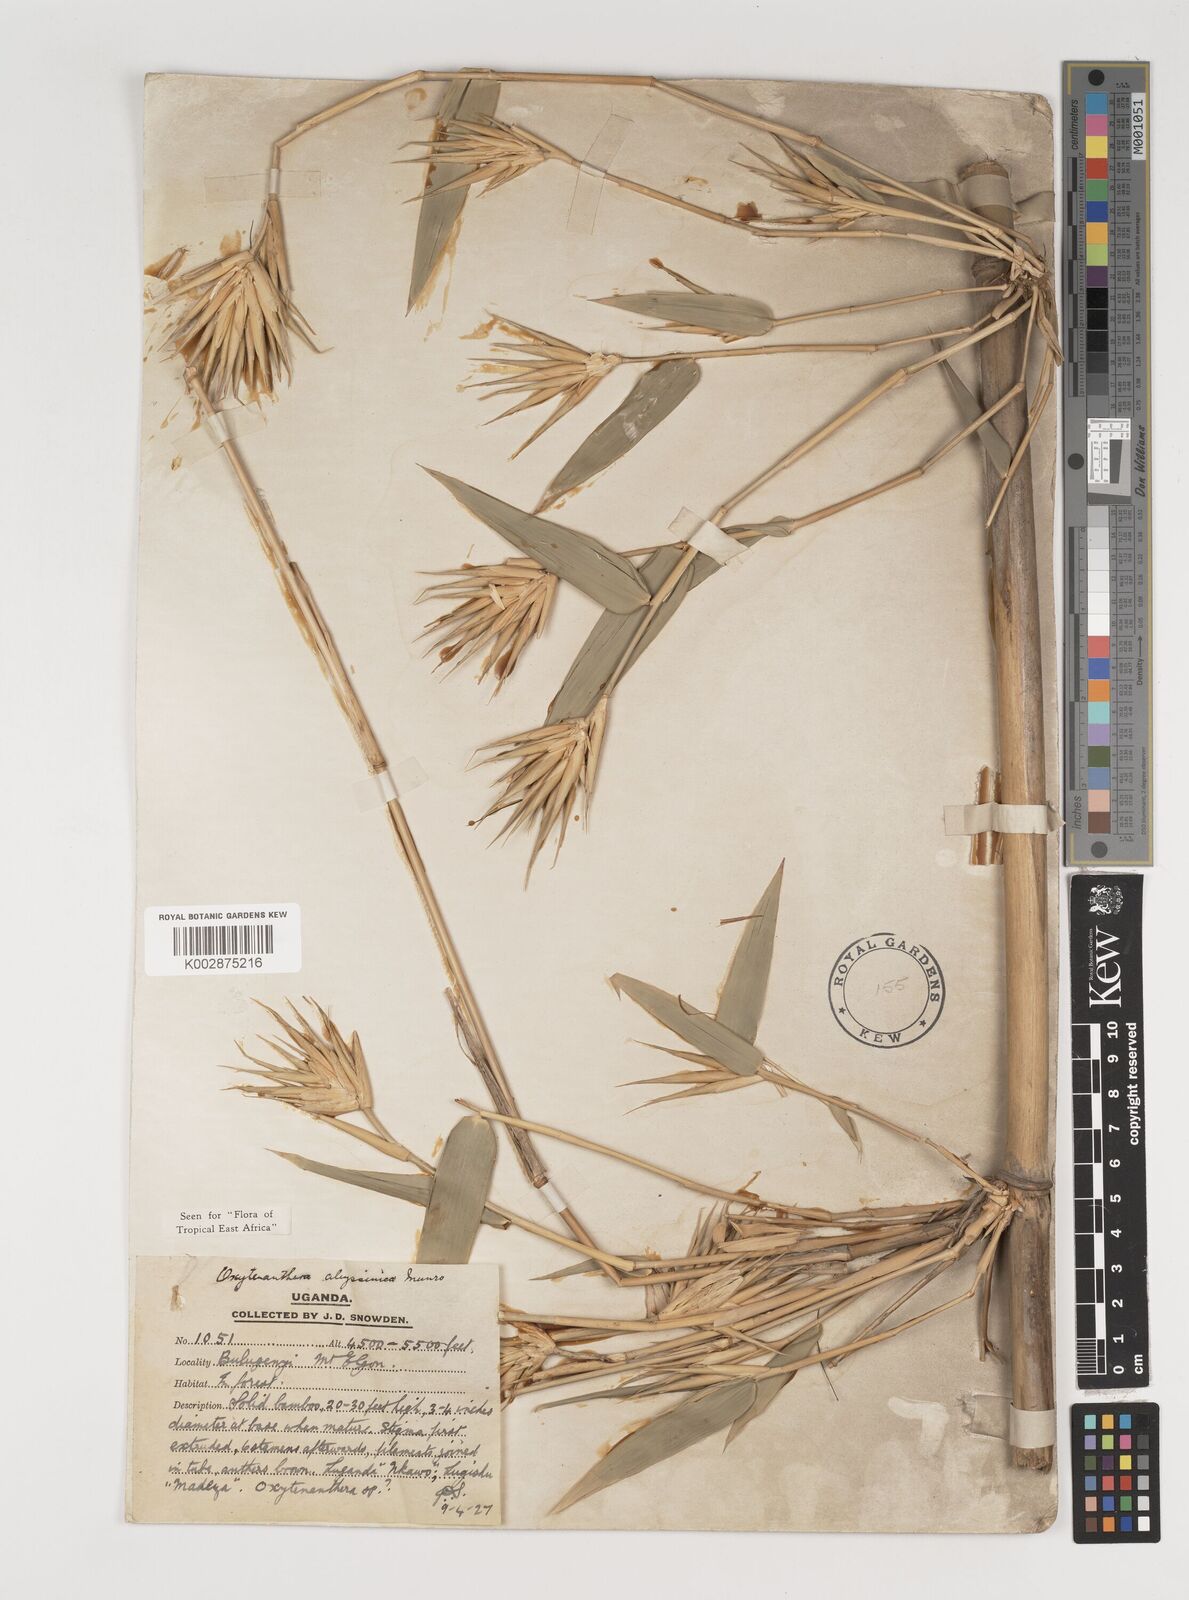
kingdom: Plantae
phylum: Tracheophyta
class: Liliopsida
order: Poales
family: Poaceae
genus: Oxytenanthera
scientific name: Oxytenanthera abyssinica
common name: Wine bamboo
